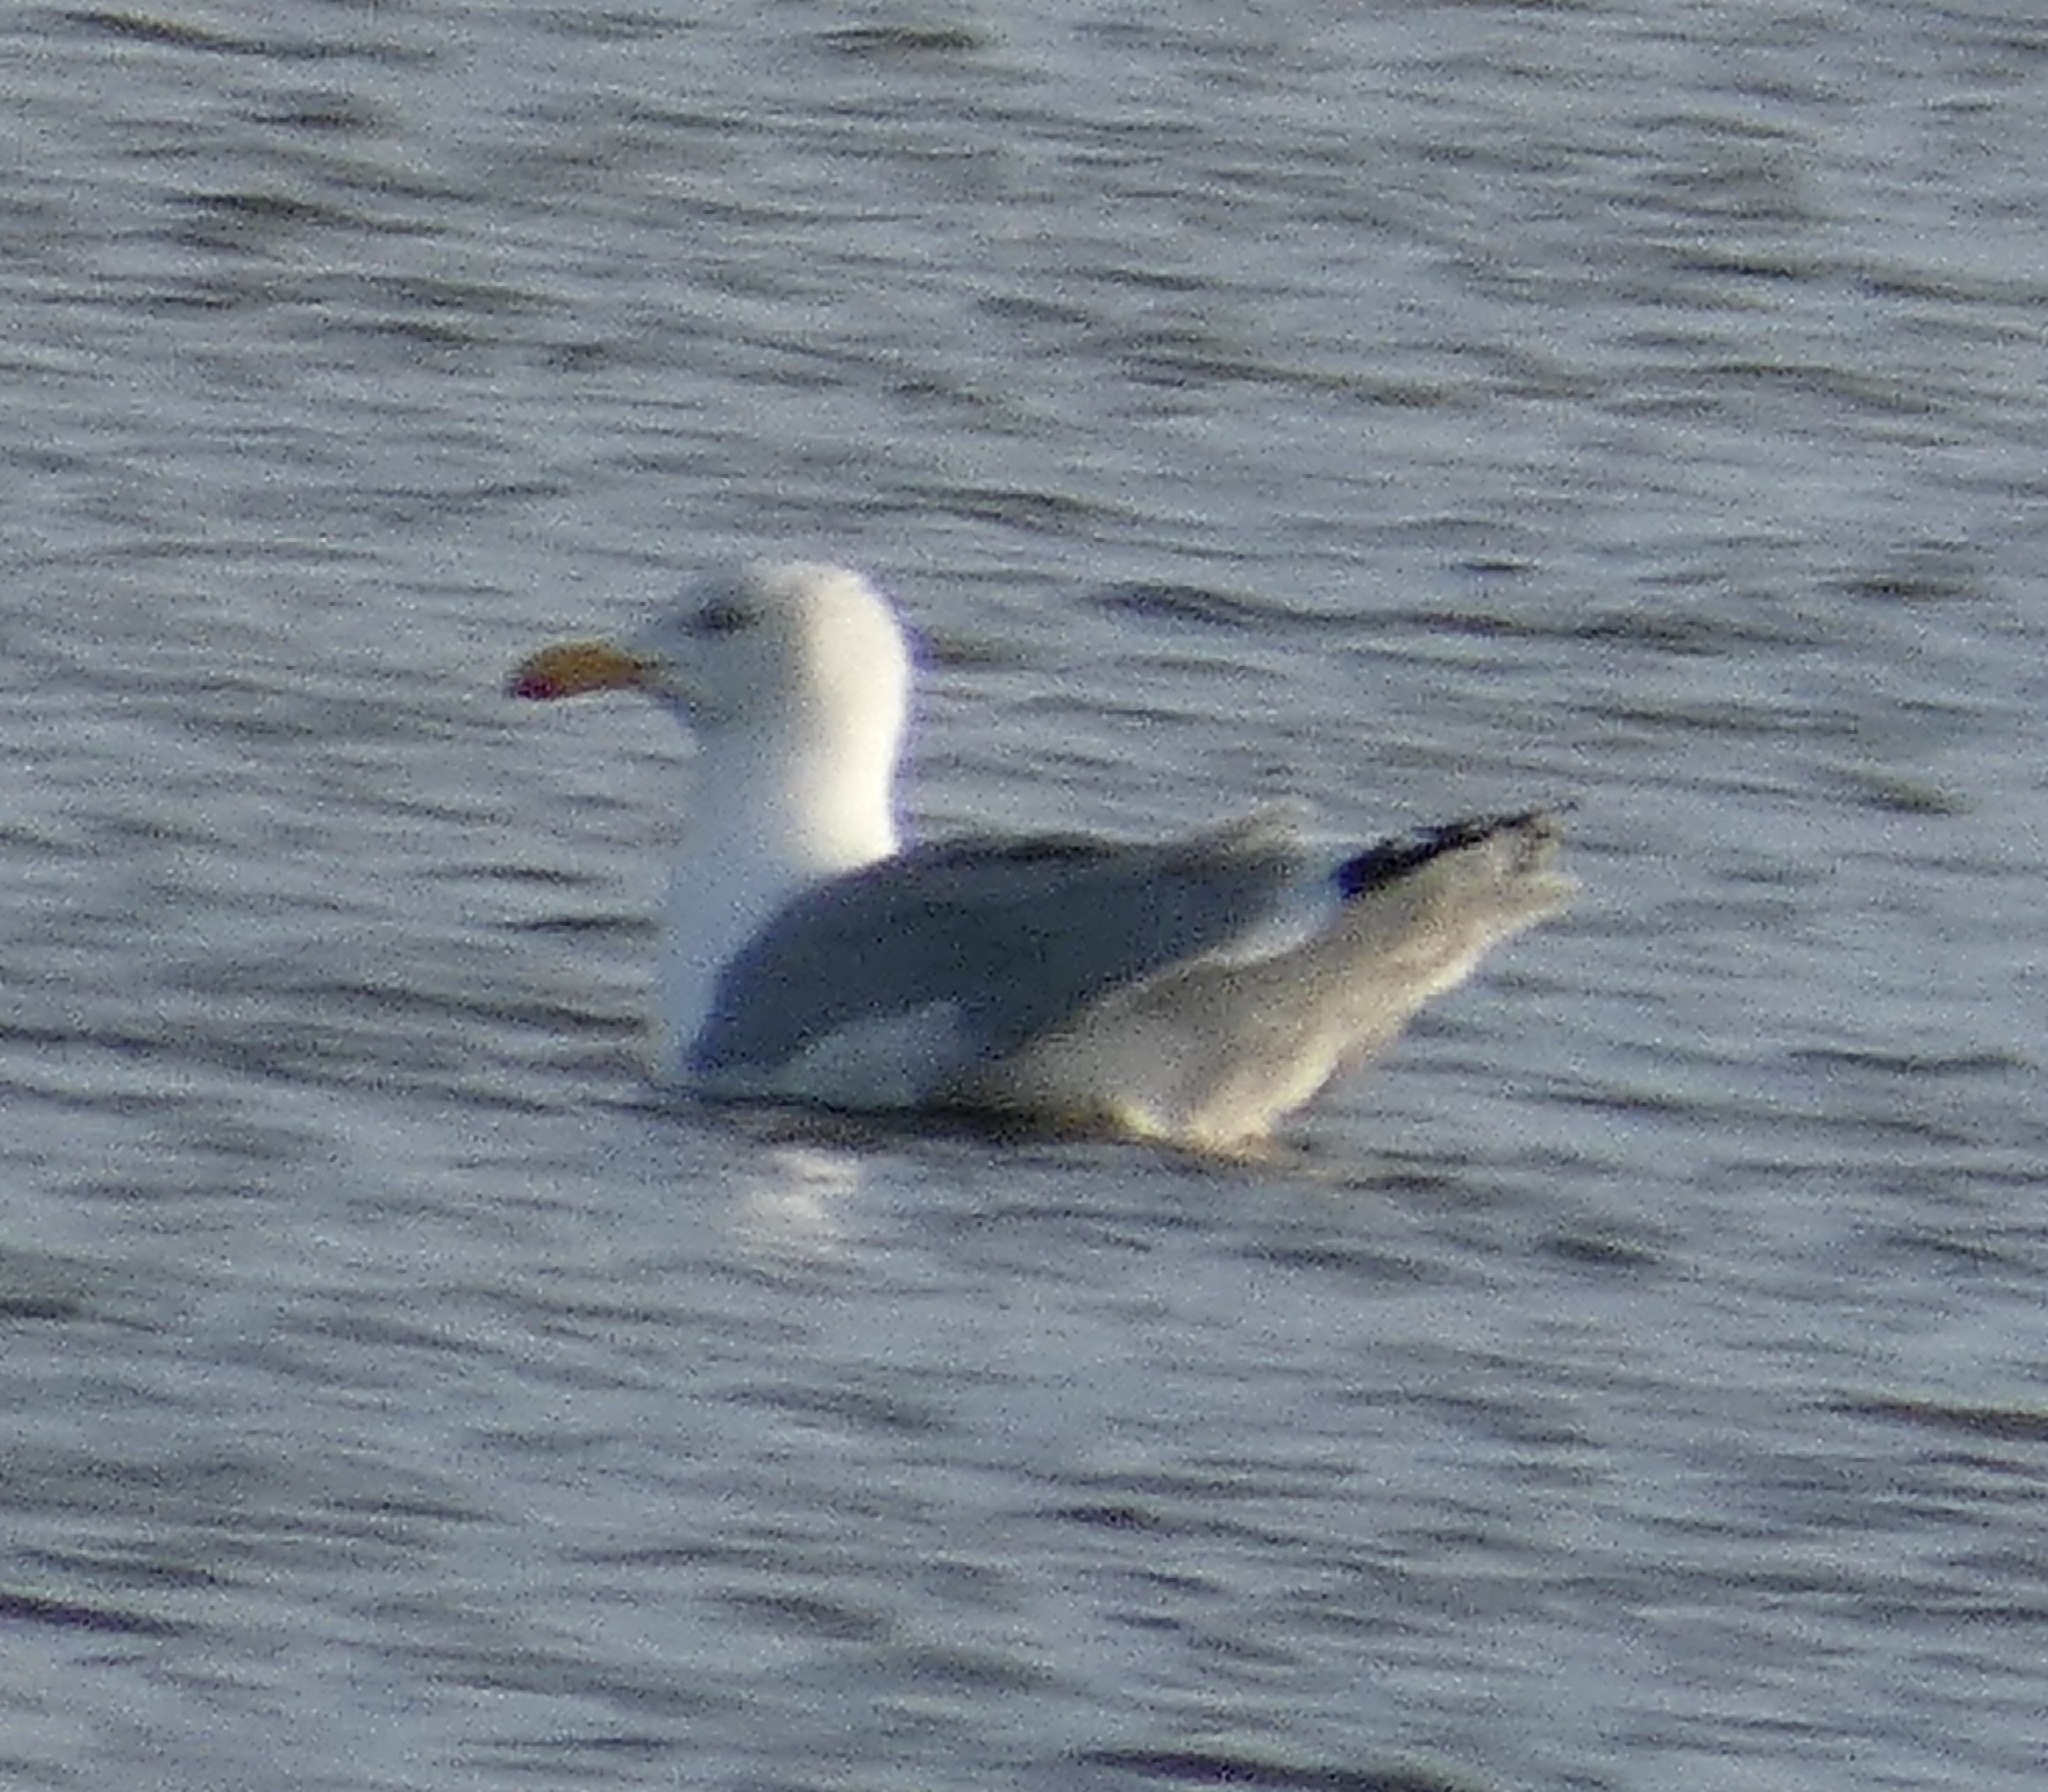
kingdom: Animalia
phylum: Chordata
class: Aves
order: Charadriiformes
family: Laridae
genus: Larus
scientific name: Larus argentatus
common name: Sølvmåge
